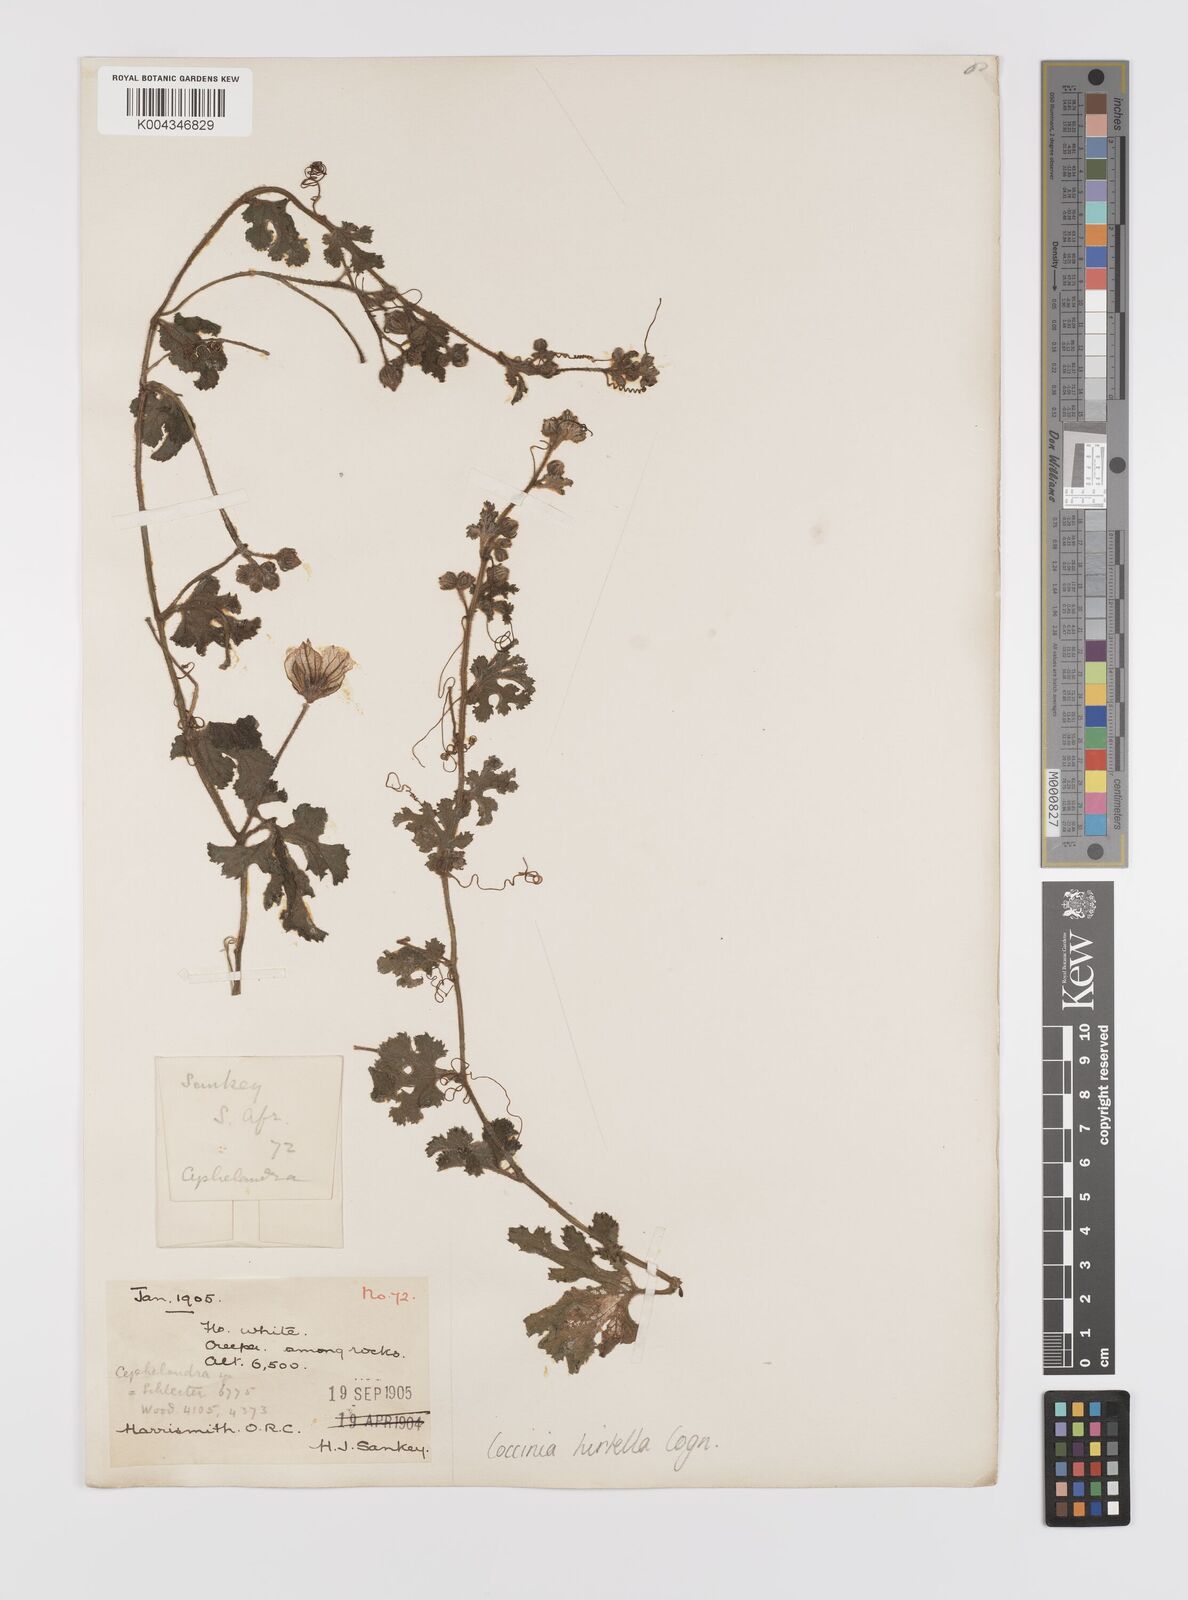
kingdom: Plantae
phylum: Tracheophyta
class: Magnoliopsida
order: Cucurbitales
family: Cucurbitaceae
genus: Coccinia
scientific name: Coccinia hirtella
